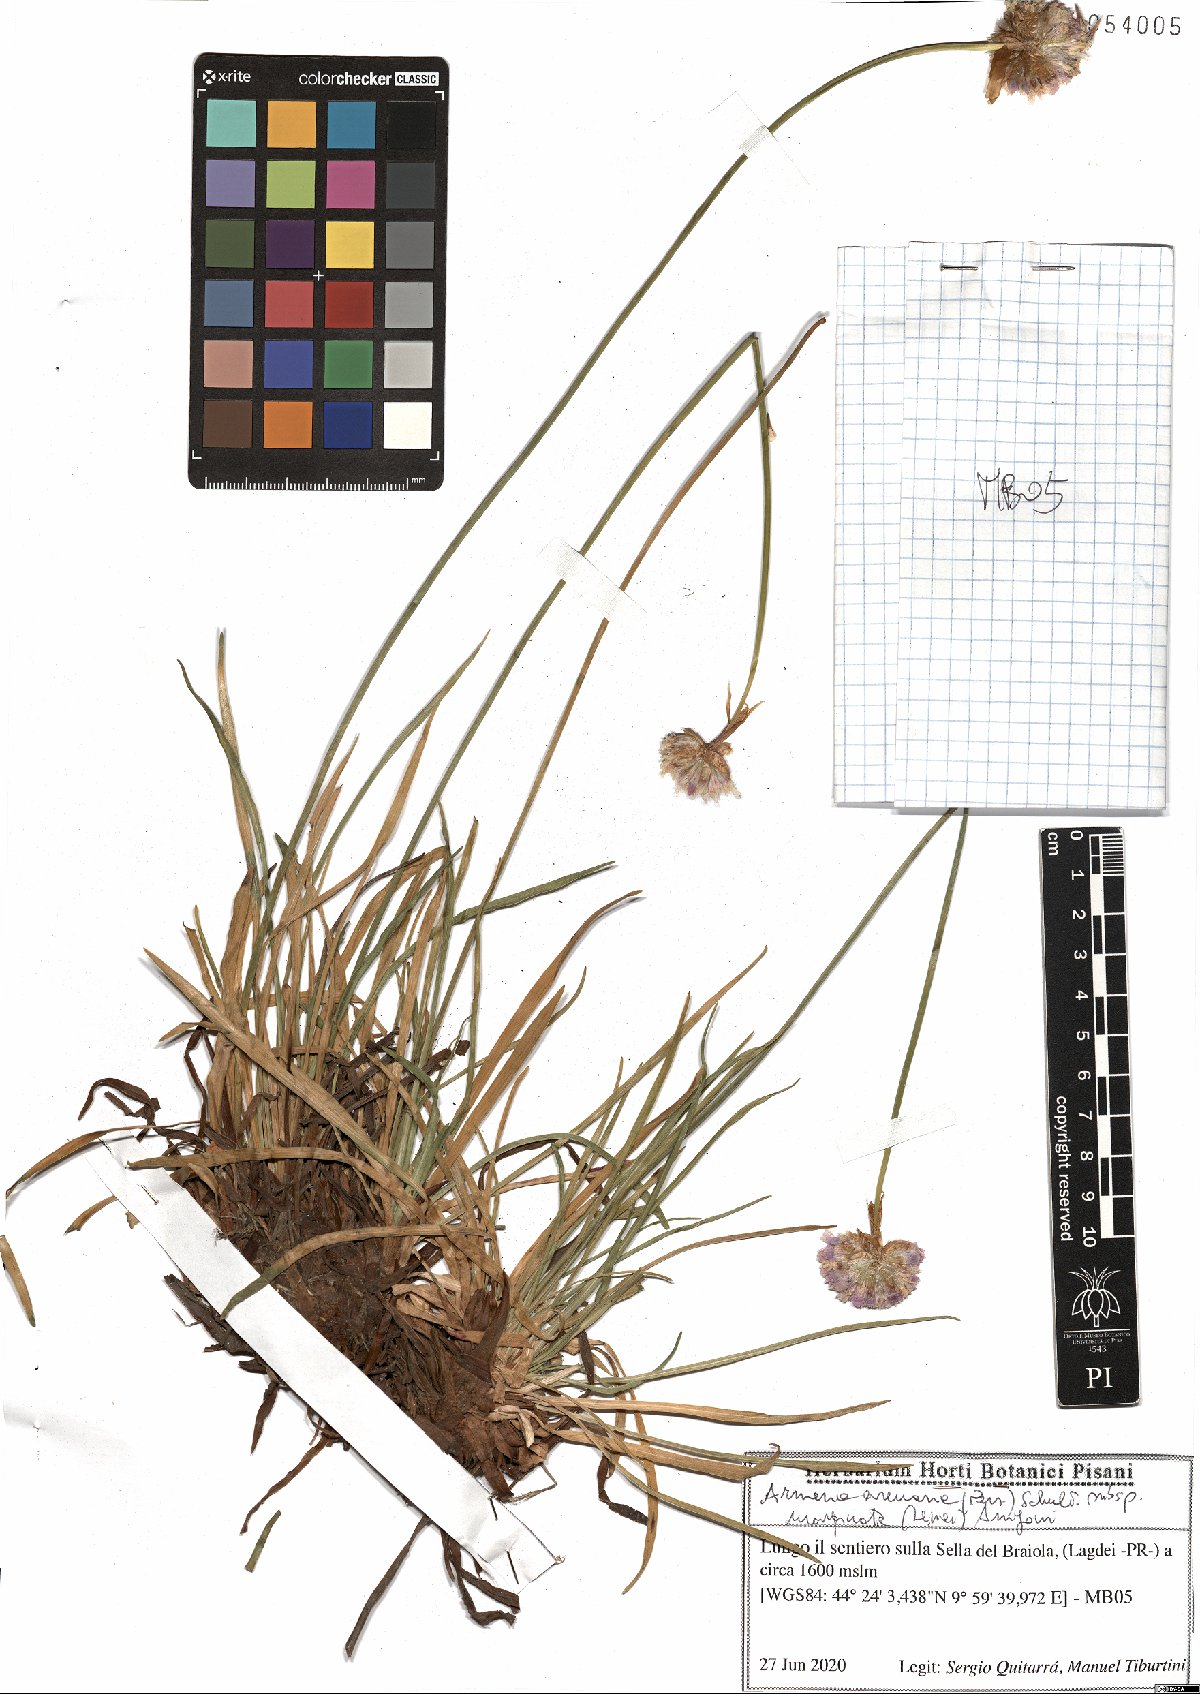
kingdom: Plantae
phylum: Tracheophyta
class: Magnoliopsida
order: Caryophyllales
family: Plumbaginaceae
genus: Armeria
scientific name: Armeria arenaria
